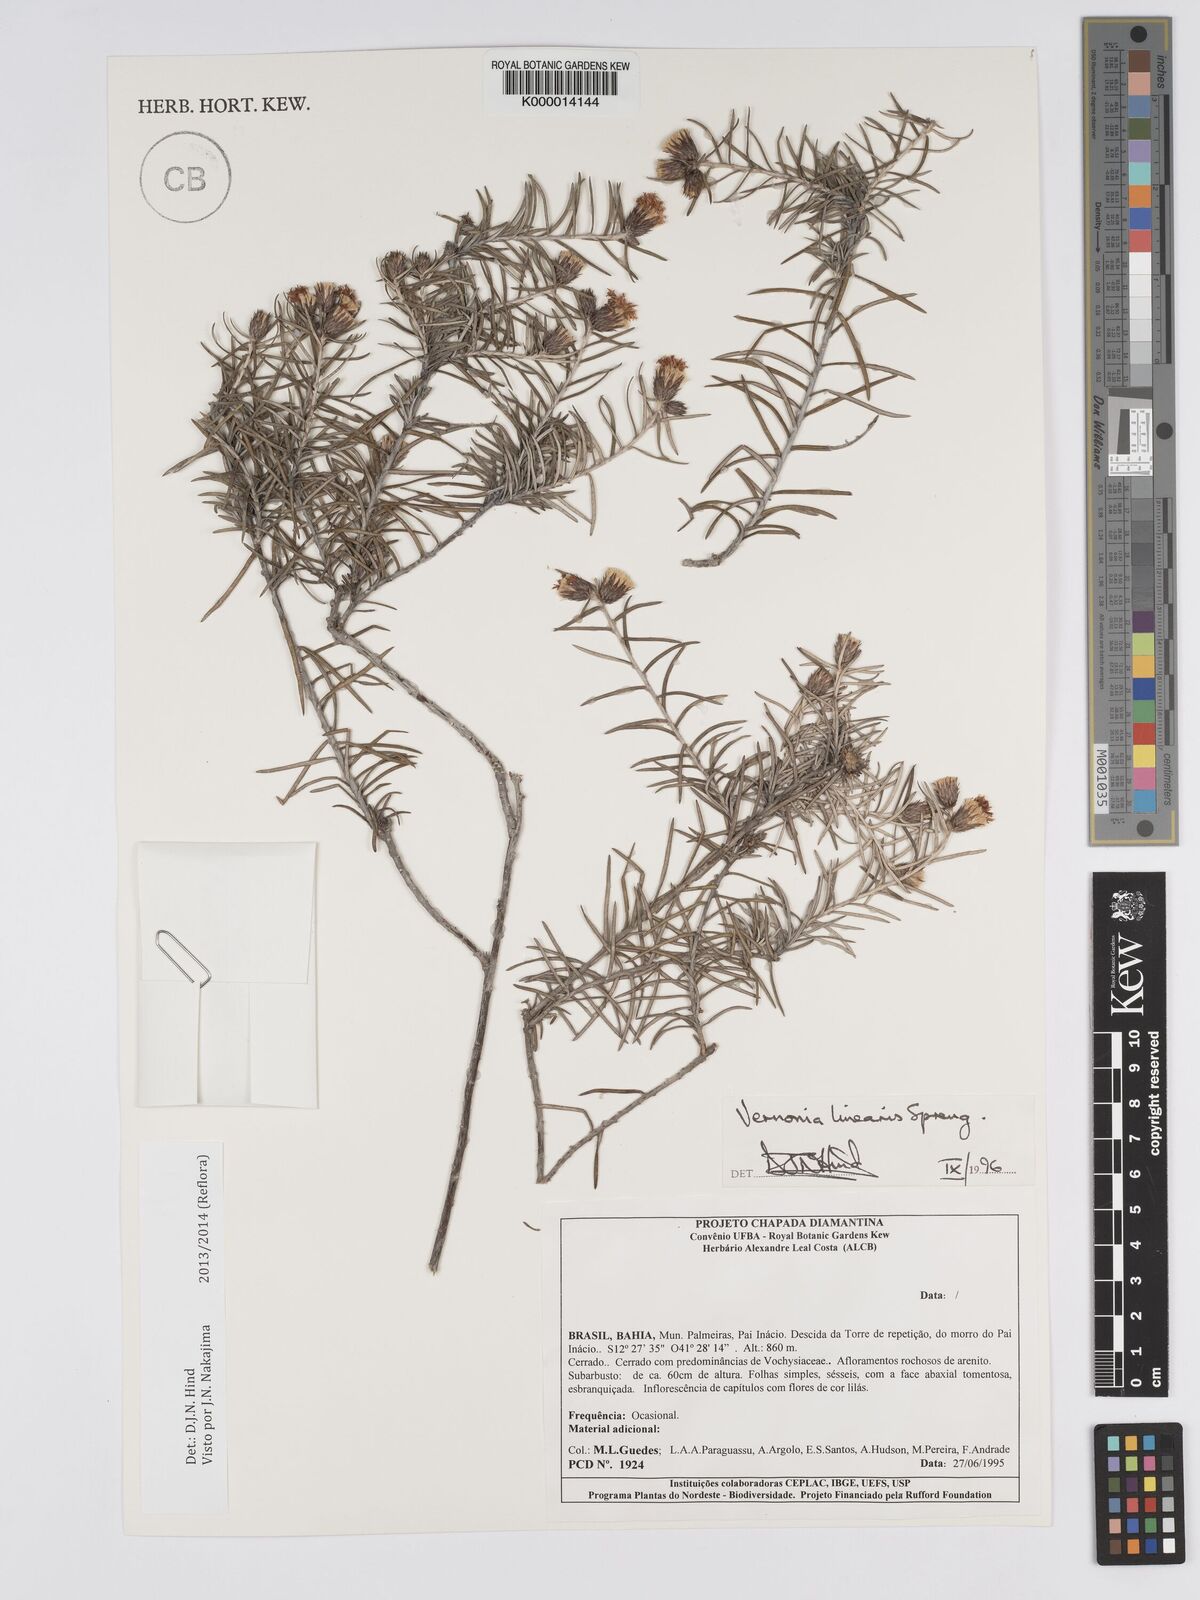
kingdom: Plantae
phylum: Tracheophyta
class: Magnoliopsida
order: Asterales
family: Asteraceae
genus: Lessingianthus
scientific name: Lessingianthus linearis
